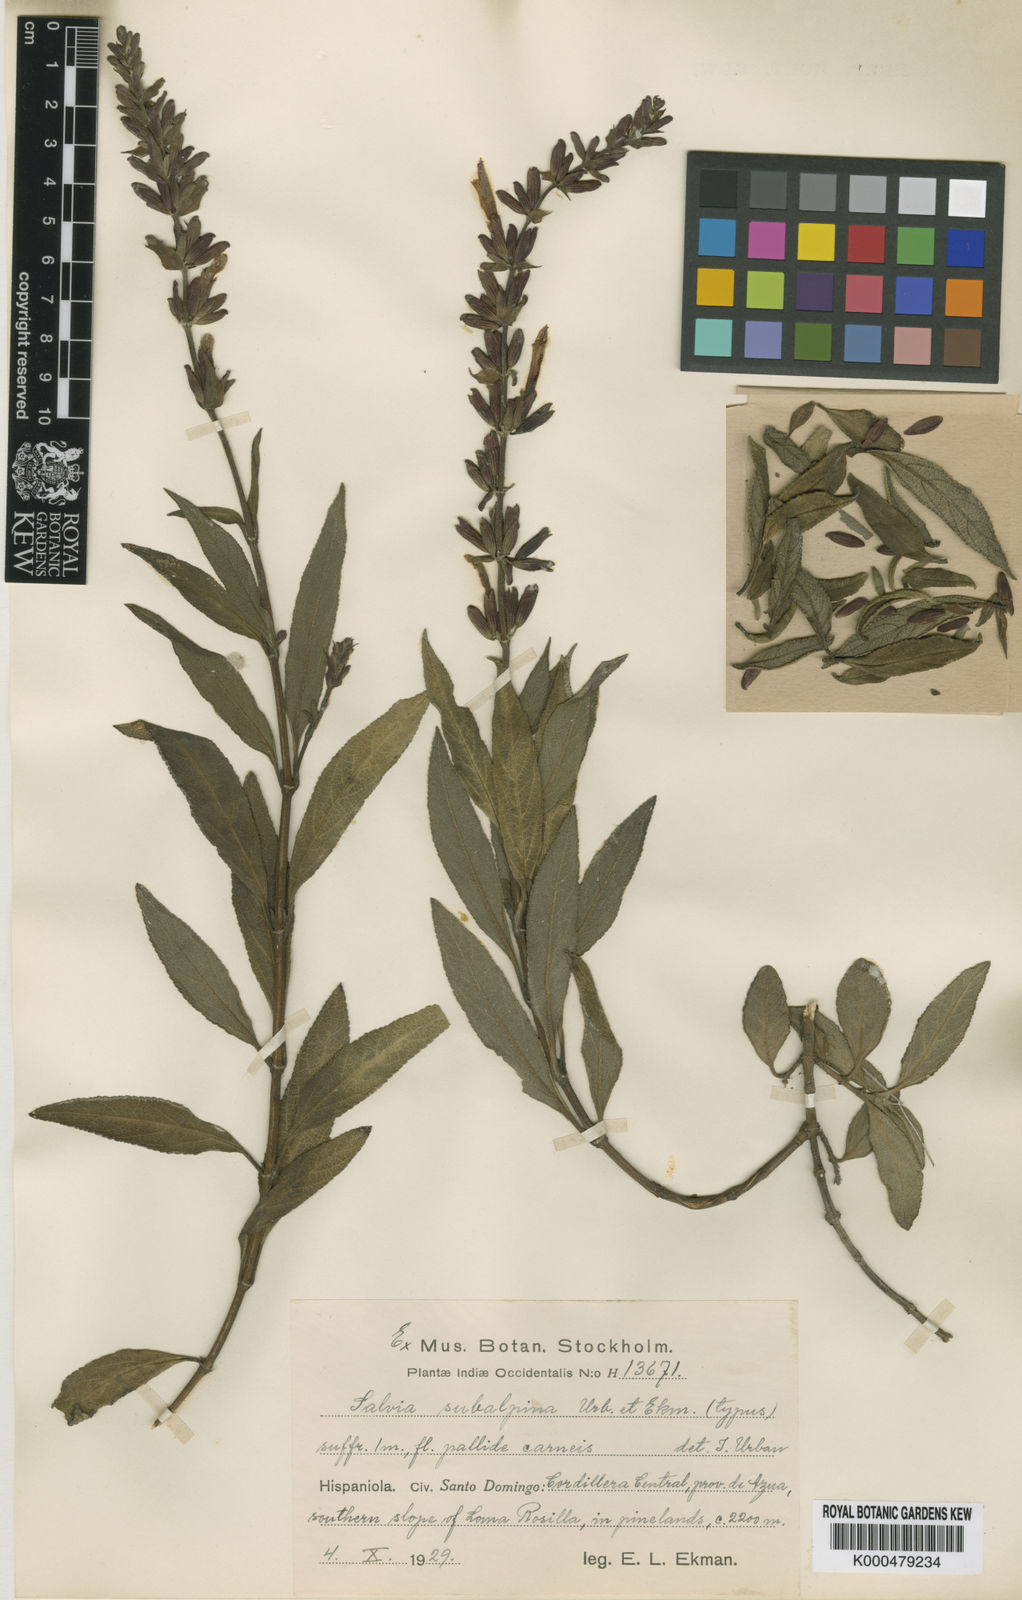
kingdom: Plantae
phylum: Tracheophyta
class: Magnoliopsida
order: Lamiales
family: Lamiaceae
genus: Salvia
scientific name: Salvia uncinata
